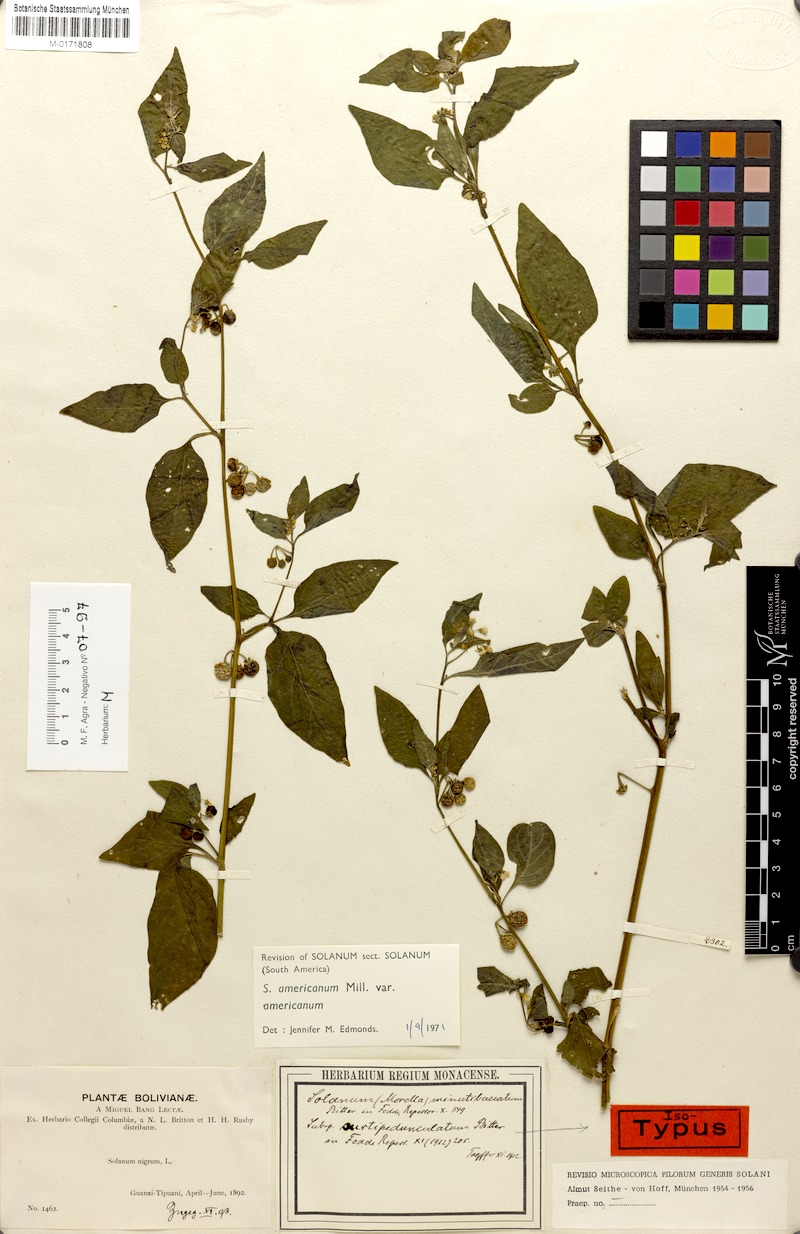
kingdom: Plantae
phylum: Tracheophyta
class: Magnoliopsida
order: Solanales
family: Solanaceae
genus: Solanum
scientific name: Solanum americanum
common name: American black nightshade
